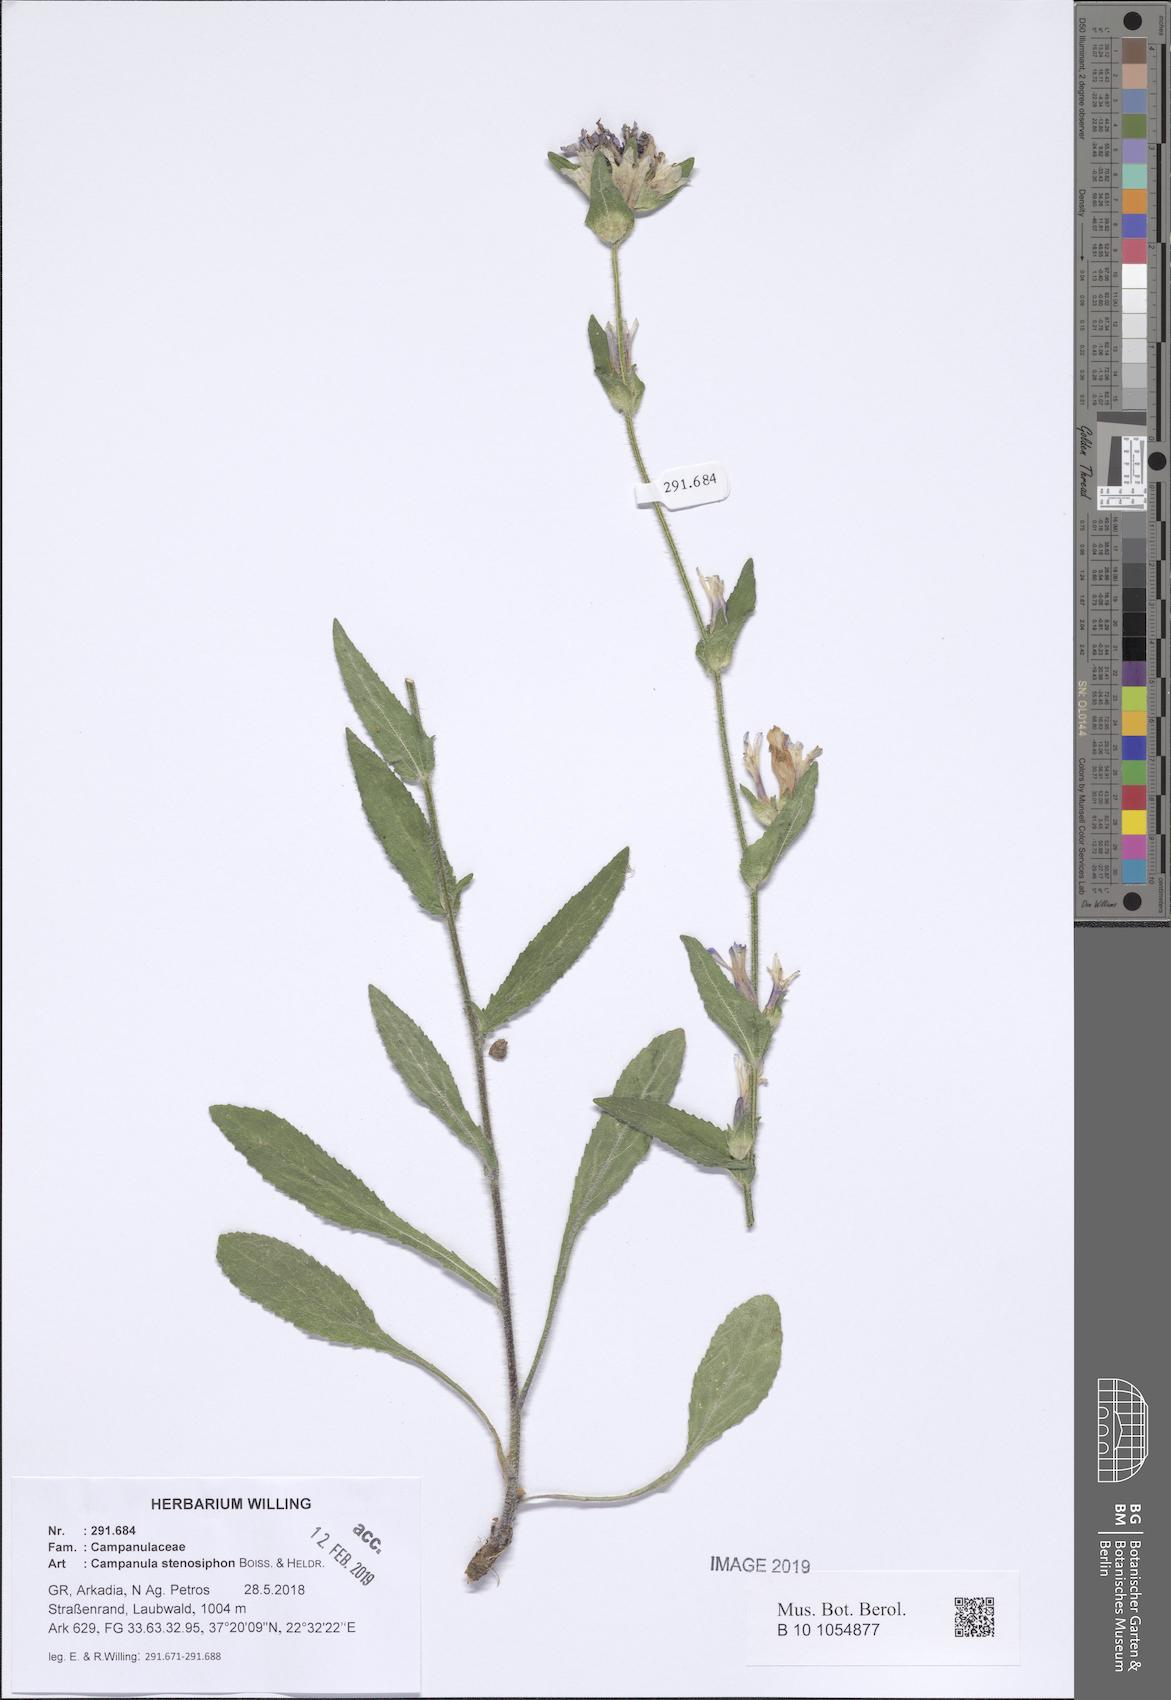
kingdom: Plantae
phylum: Tracheophyta
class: Magnoliopsida
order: Asterales
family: Campanulaceae
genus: Campanula
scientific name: Campanula stenosiphon
